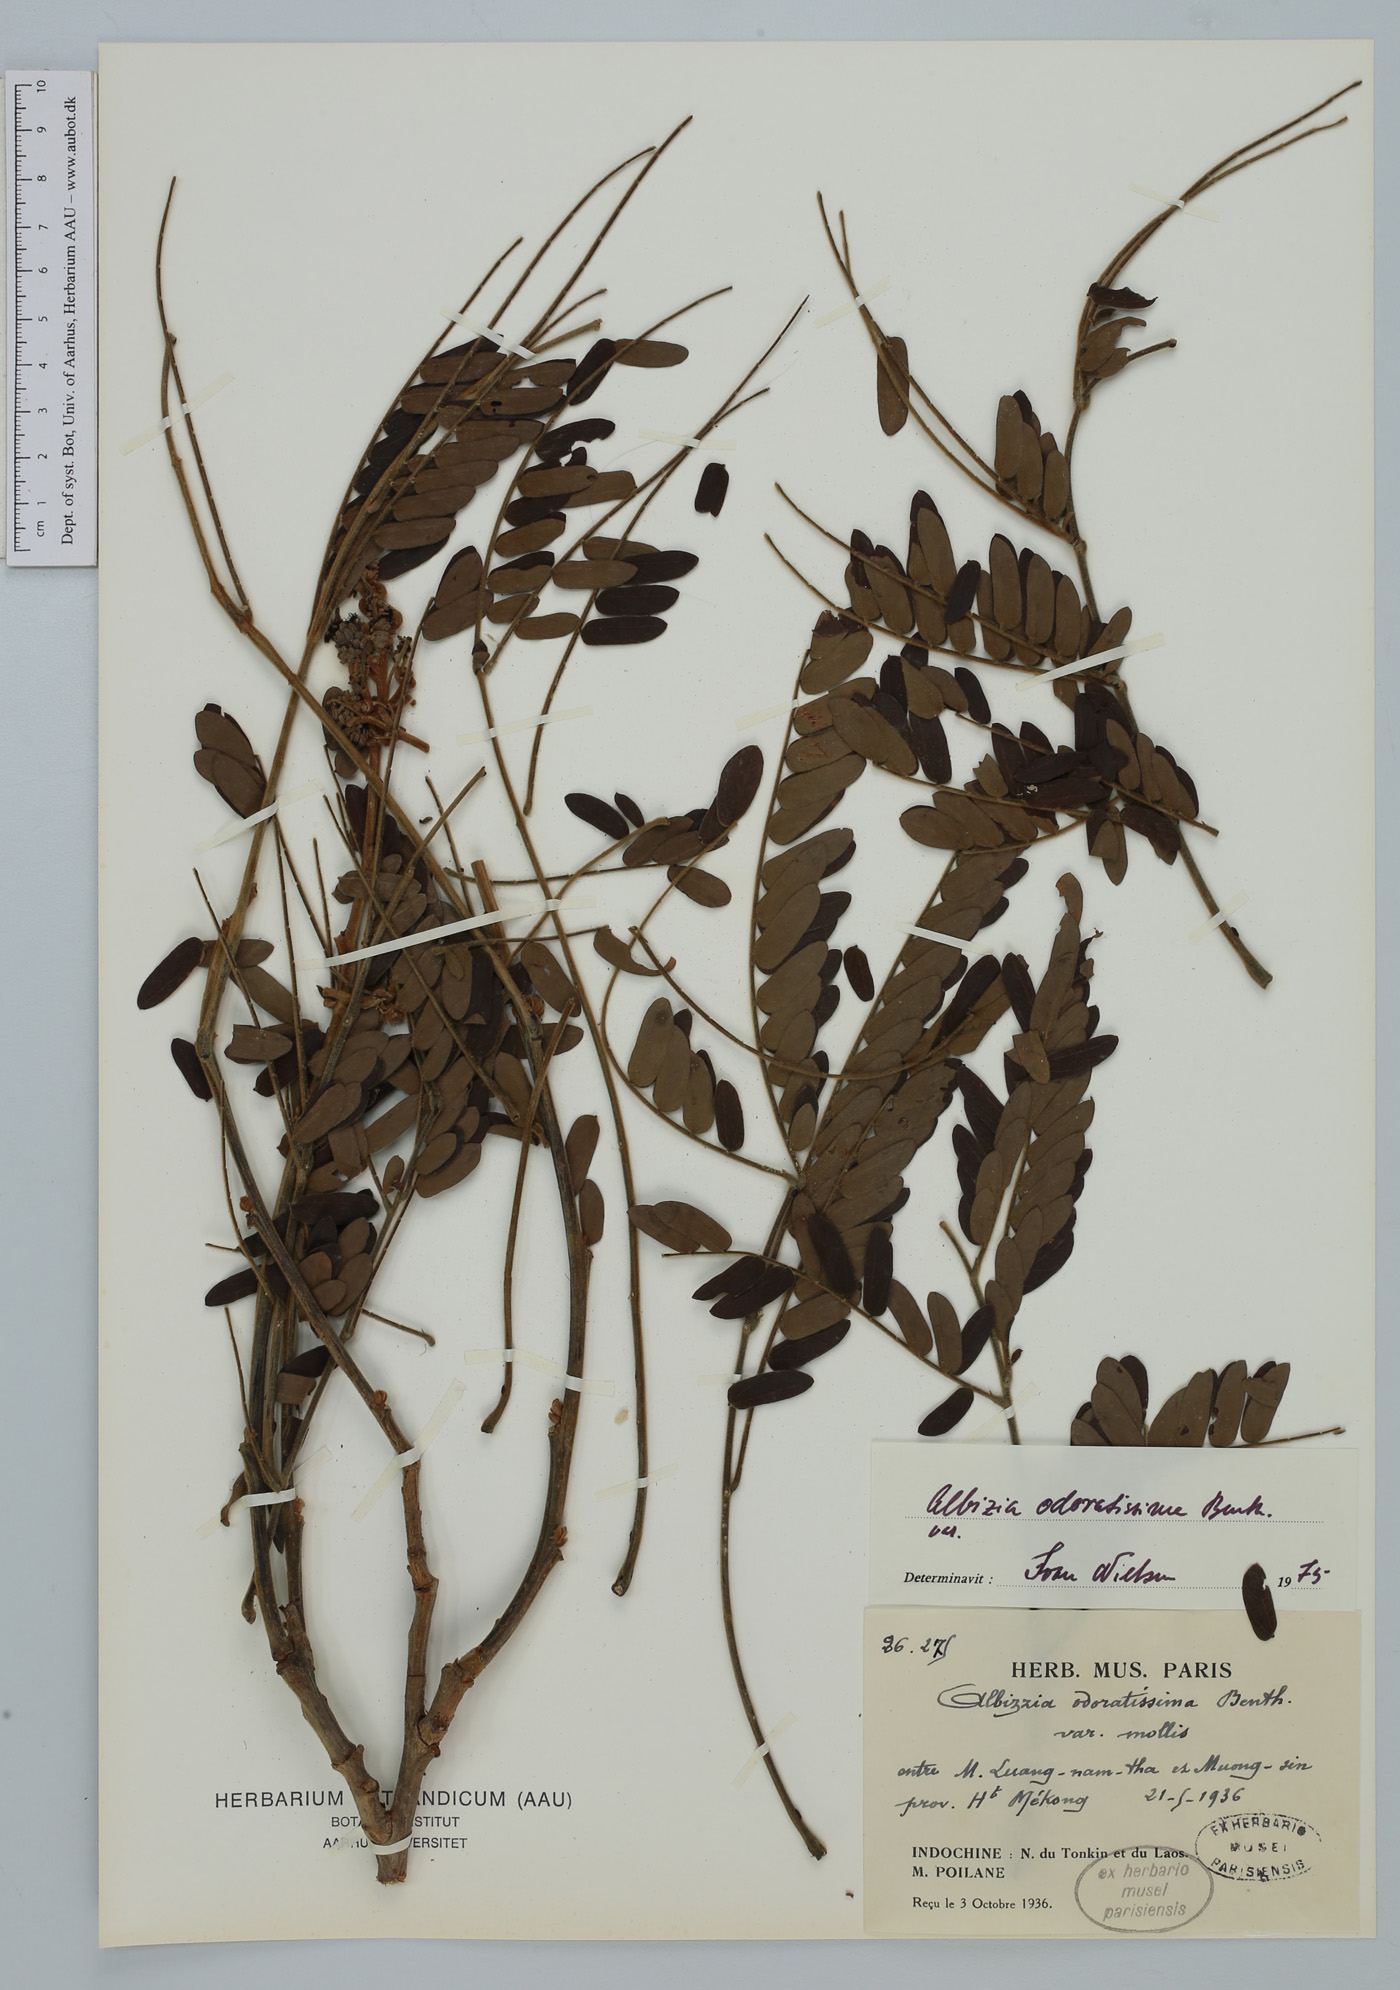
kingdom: Plantae
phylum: Tracheophyta
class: Magnoliopsida
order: Fabales
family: Fabaceae
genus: Albizia
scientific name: Albizia odoratissima
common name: Ceylon rosewood
